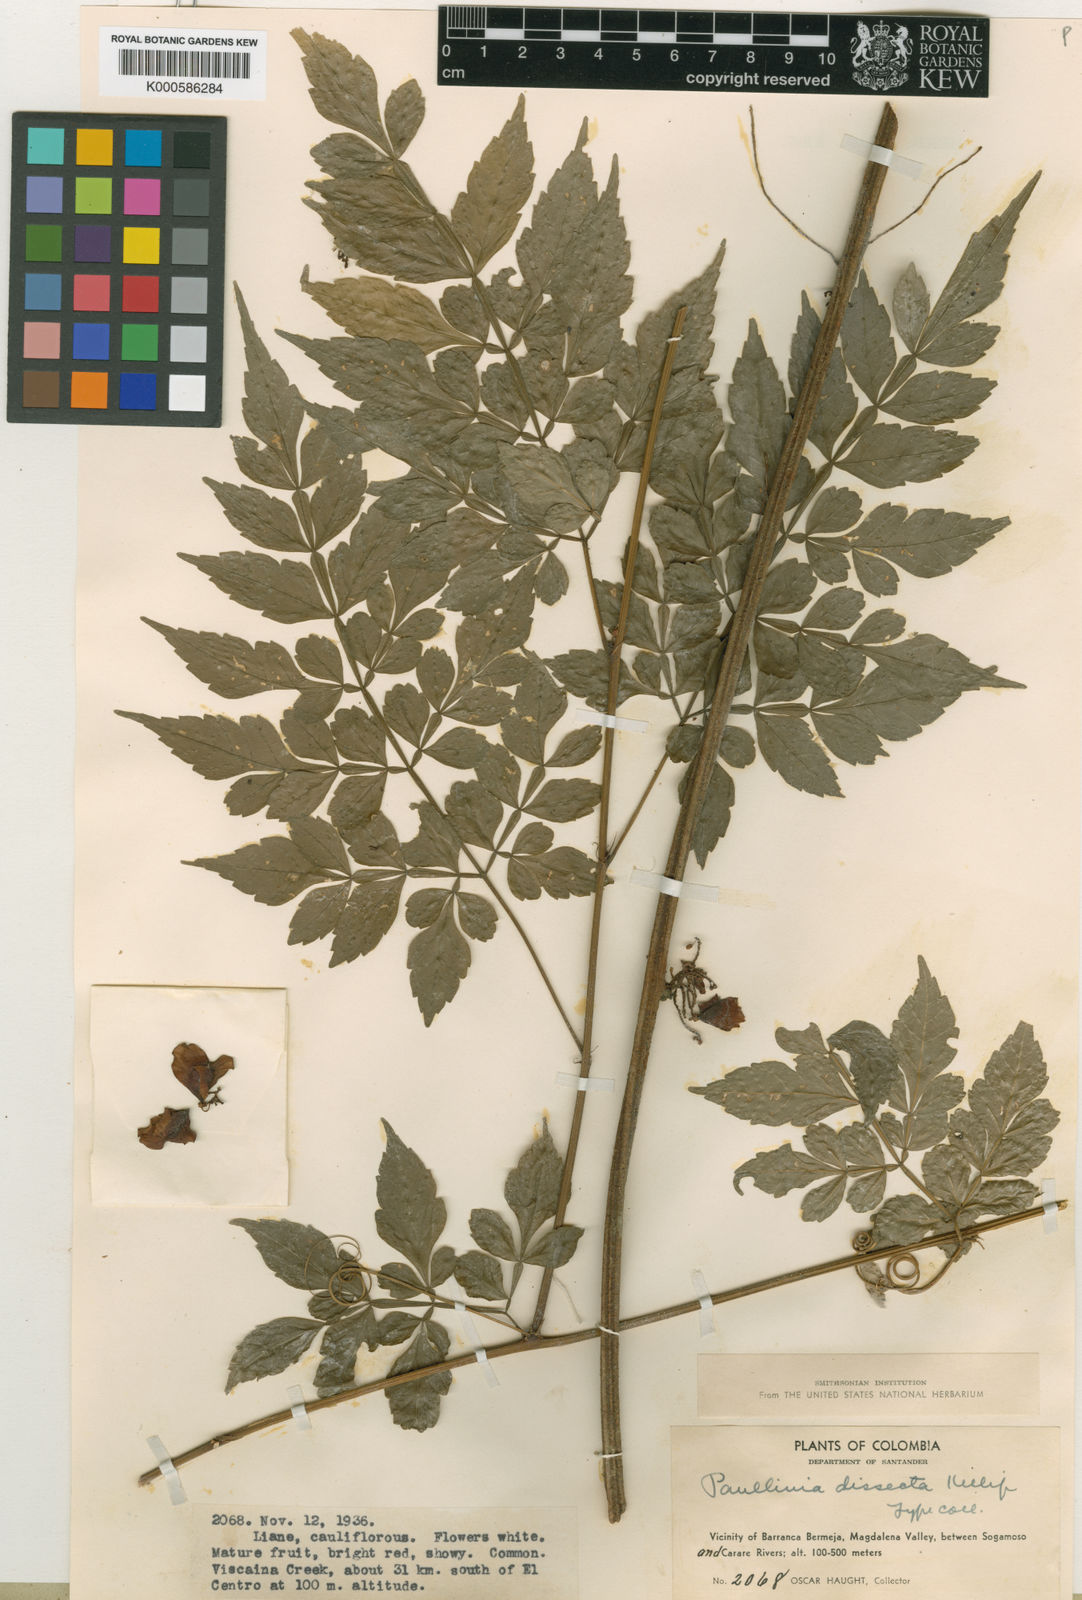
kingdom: Plantae
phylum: Tracheophyta
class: Magnoliopsida
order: Sapindales
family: Sapindaceae
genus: Paullinia
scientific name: Paullinia
